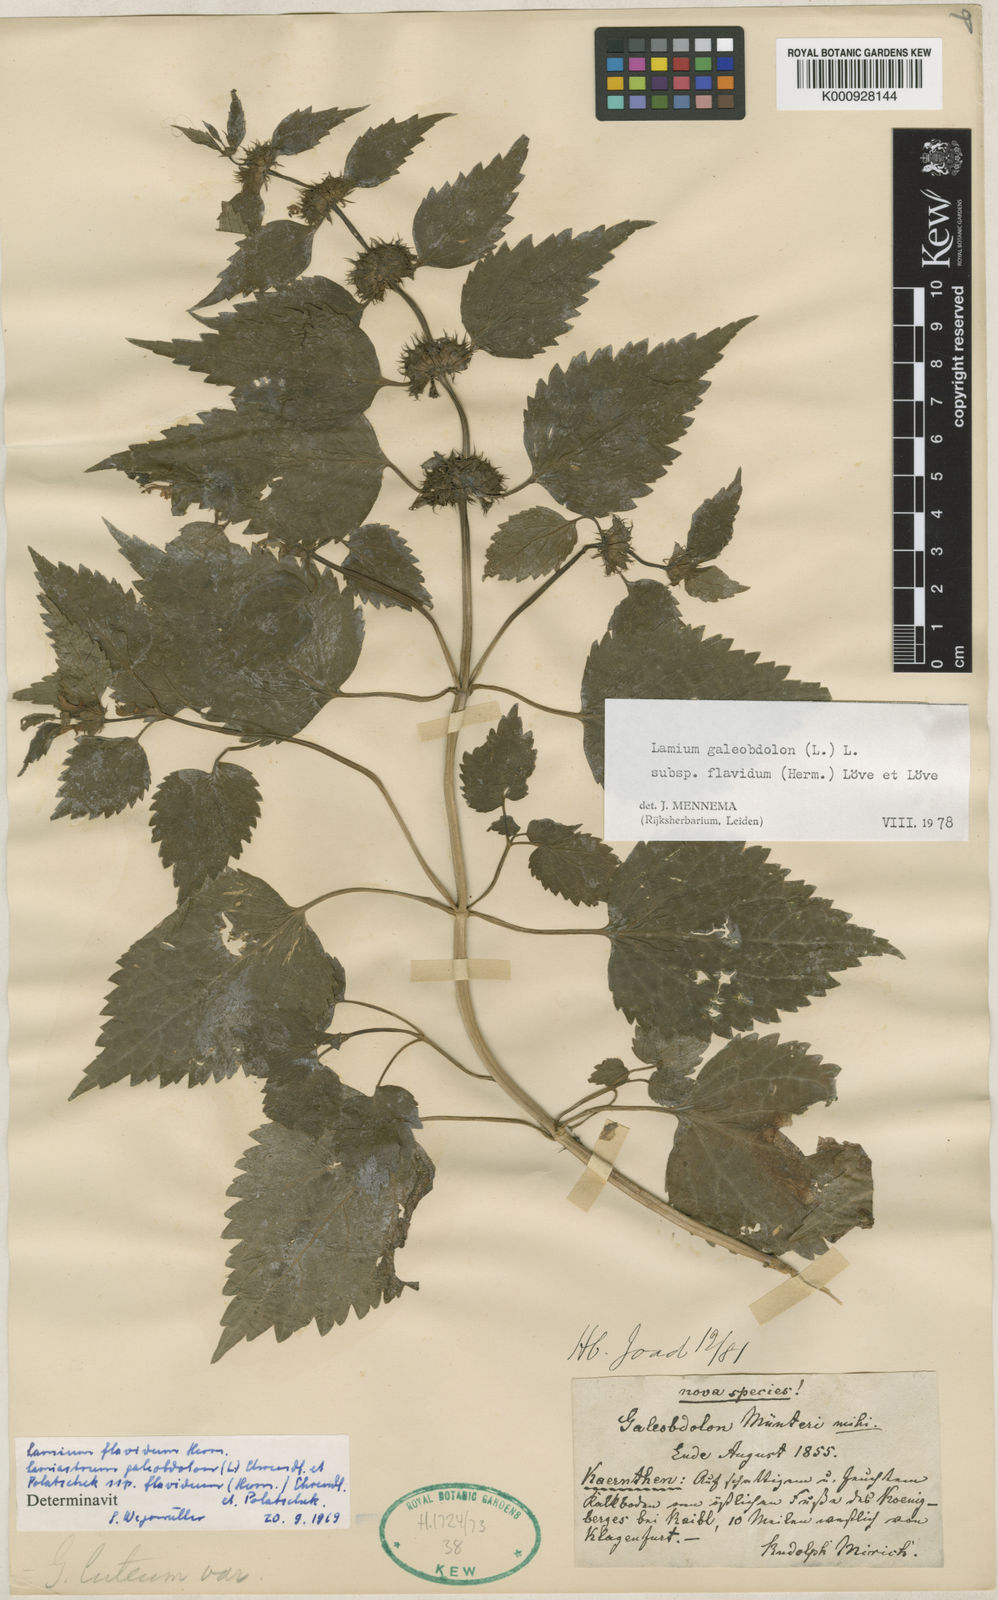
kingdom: Plantae
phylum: Tracheophyta
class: Magnoliopsida
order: Lamiales
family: Lamiaceae
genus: Lamium
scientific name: Lamium galeobdolon
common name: Yellow archangel
